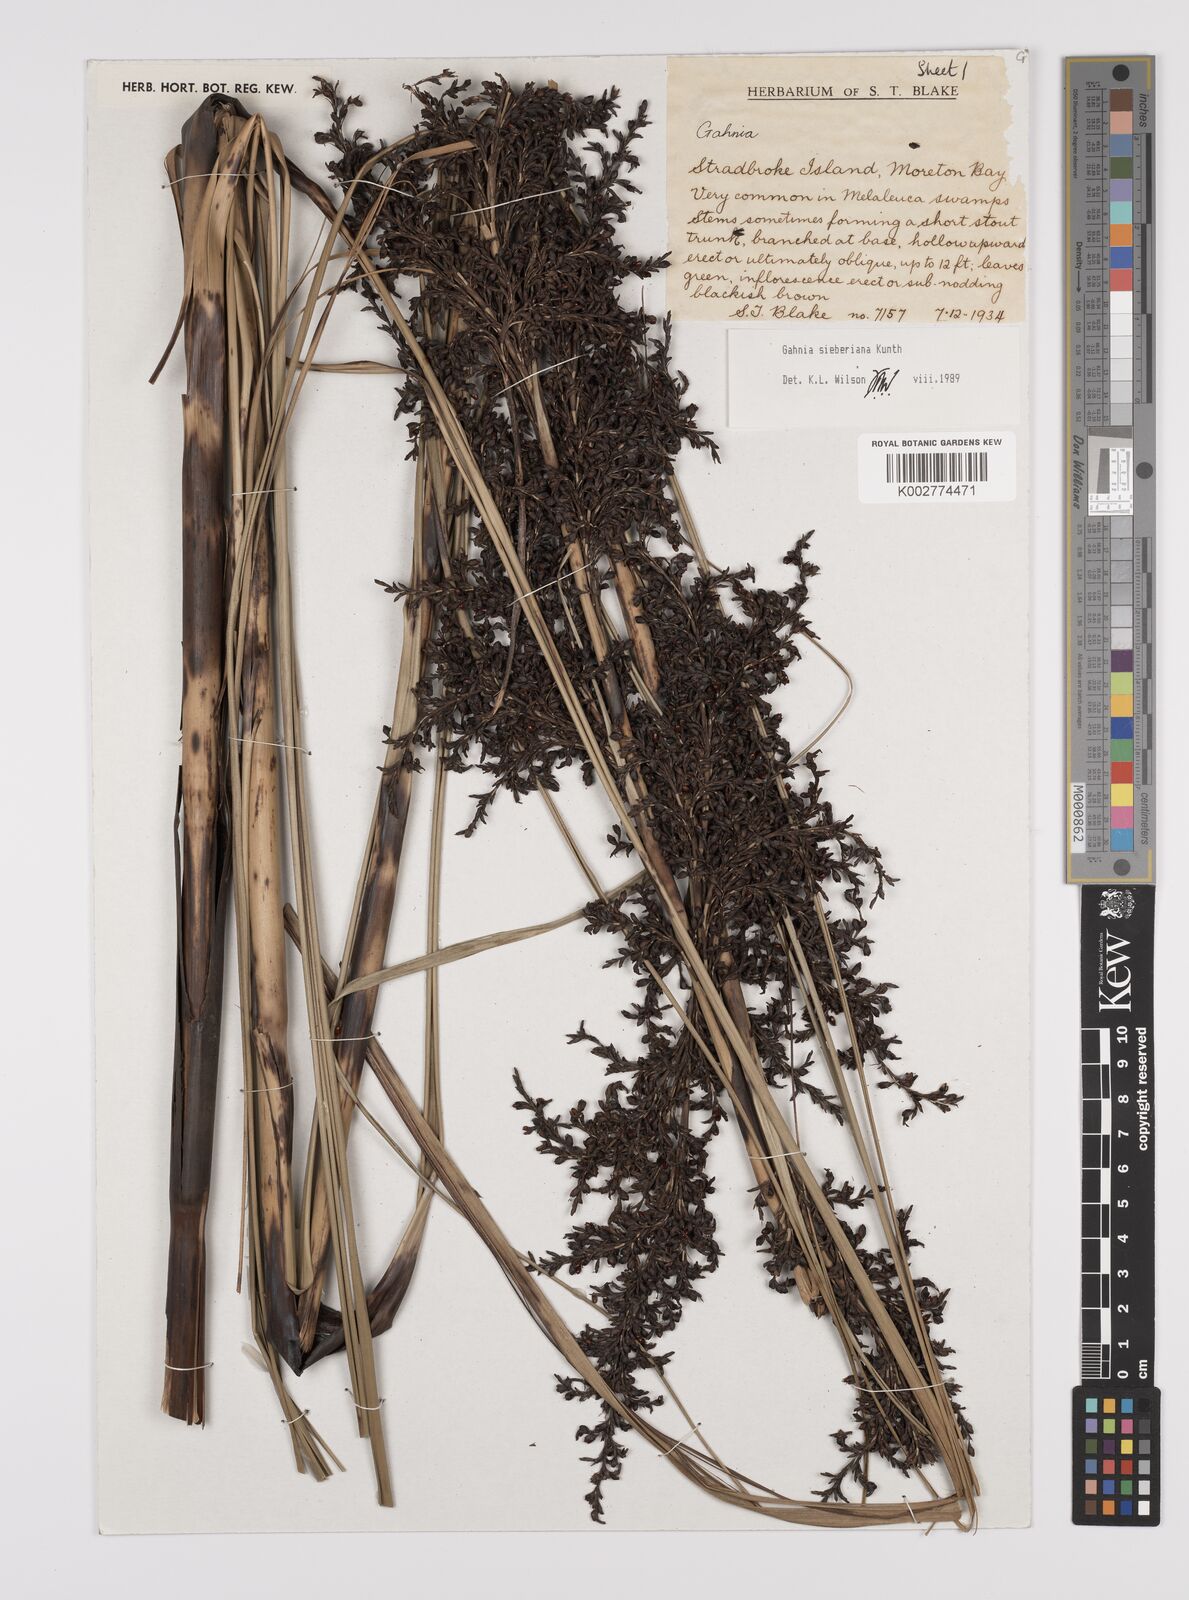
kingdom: Plantae
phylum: Tracheophyta
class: Liliopsida
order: Poales
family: Cyperaceae
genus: Gahnia
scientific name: Gahnia sieberiana
